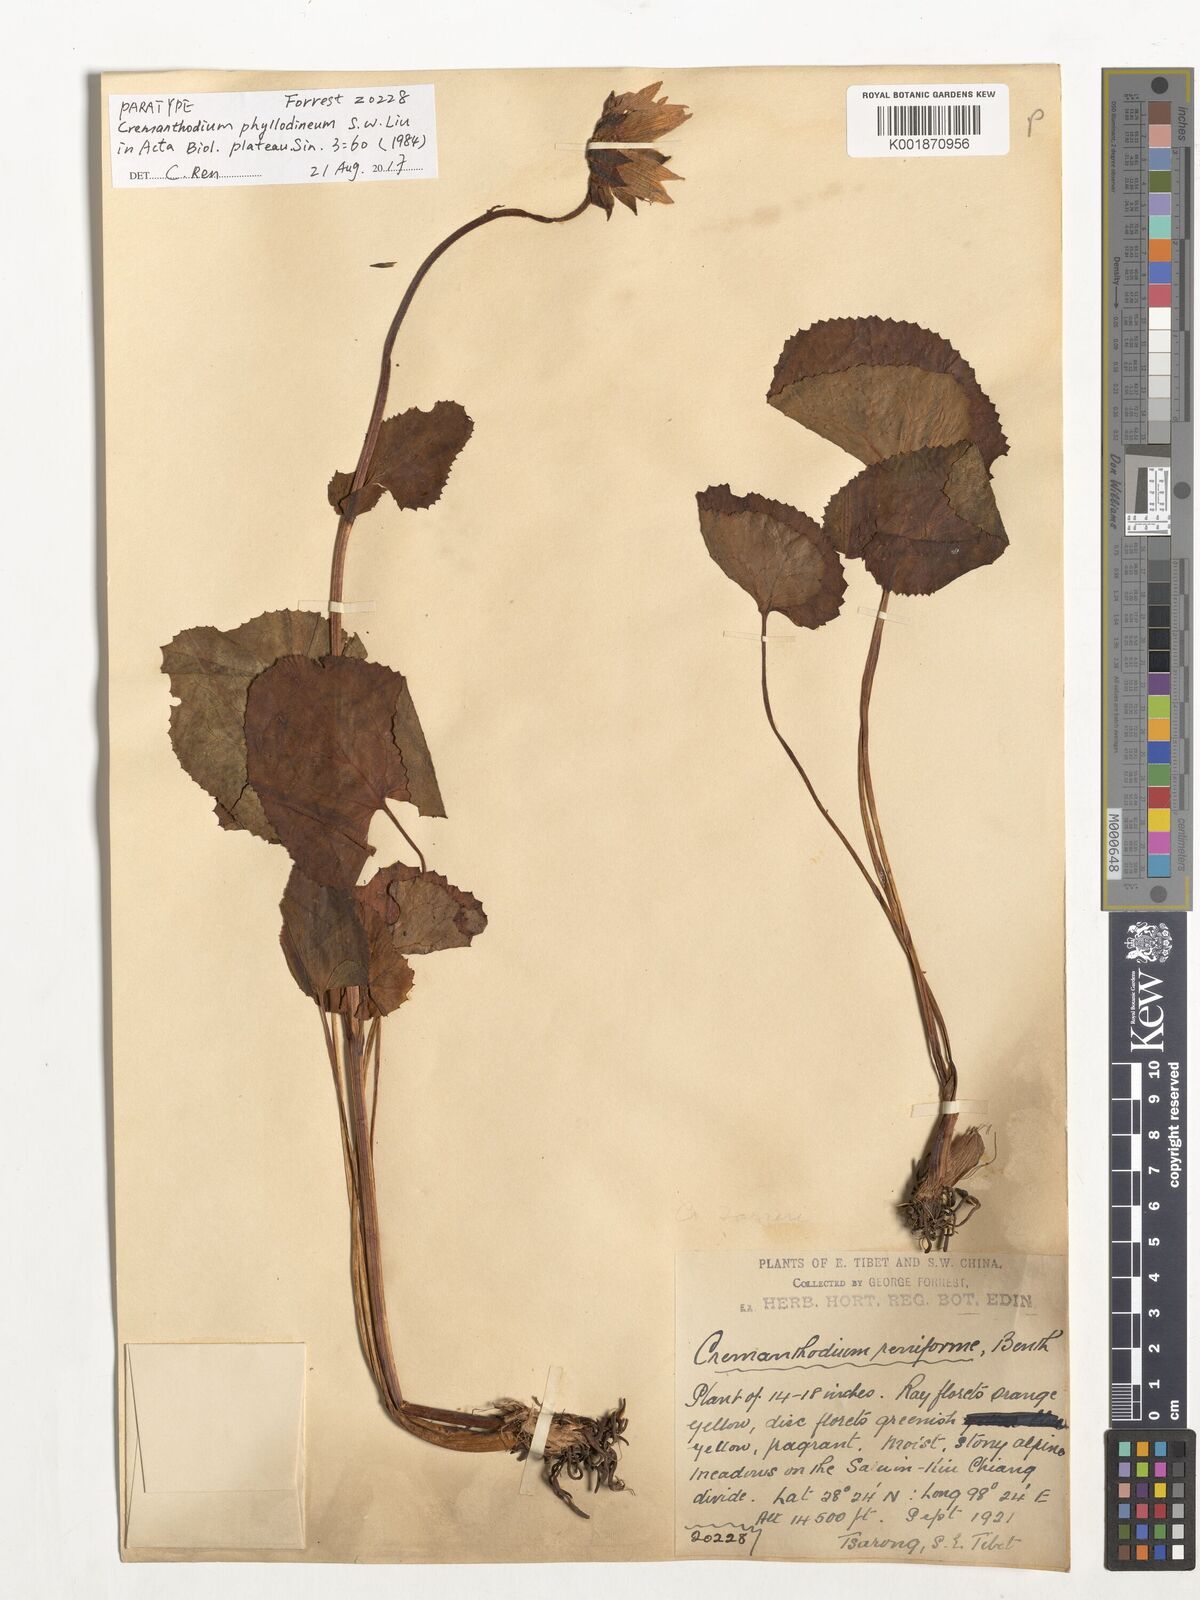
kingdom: Plantae
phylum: Tracheophyta
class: Magnoliopsida
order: Asterales
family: Asteraceae
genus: Cremanthodium
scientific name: Cremanthodium phyllodineum
